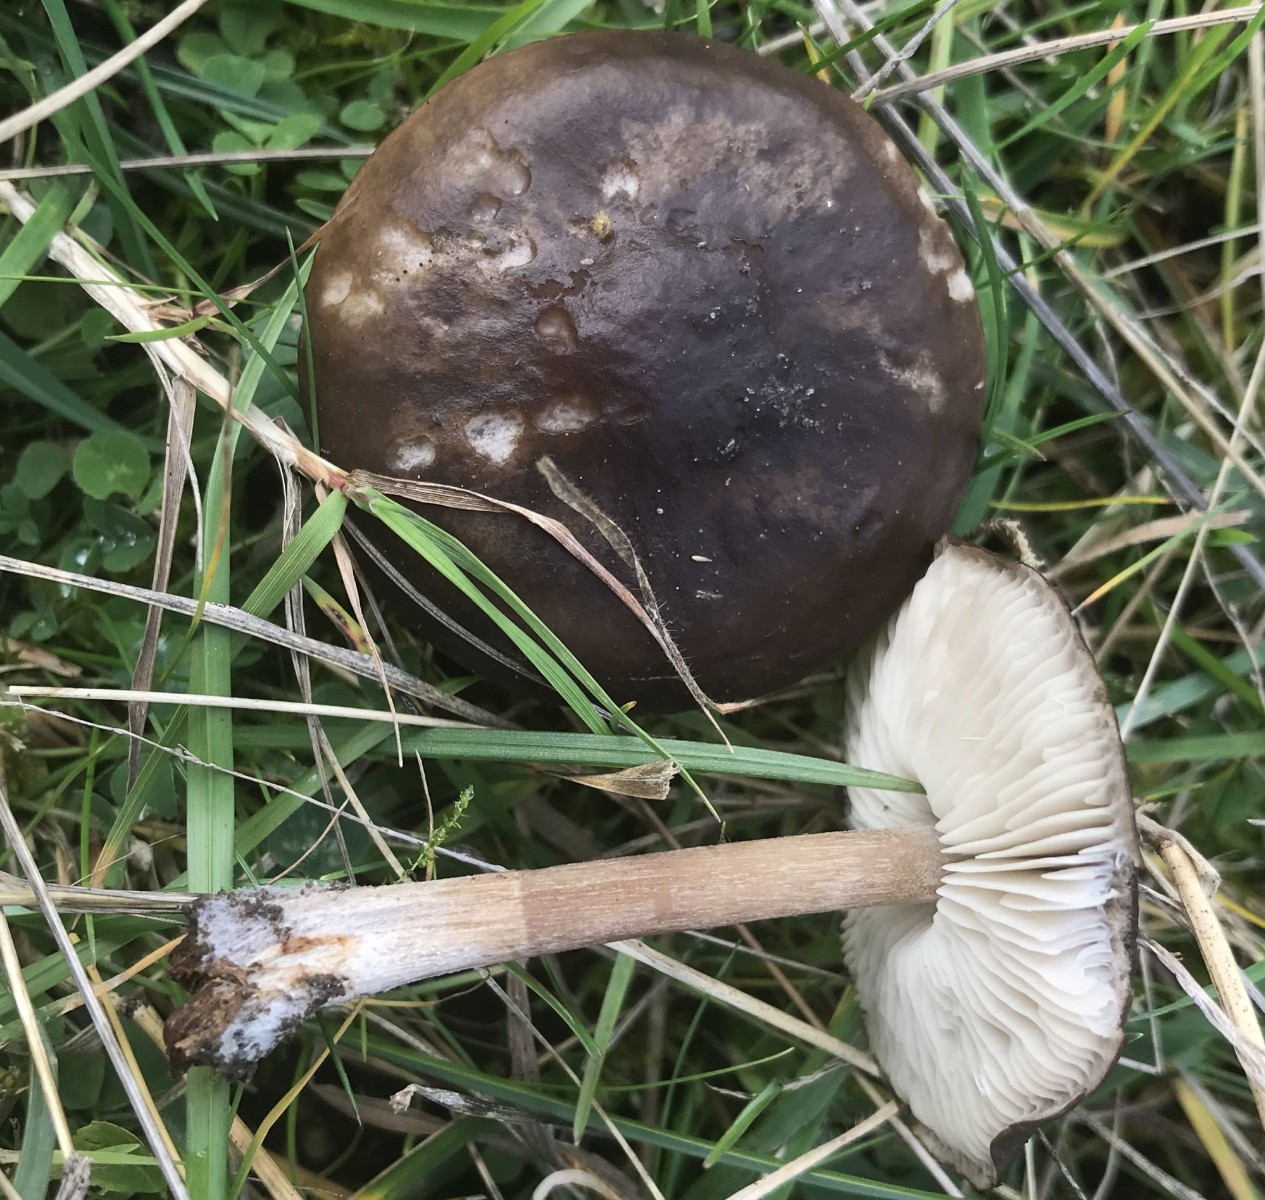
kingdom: Fungi
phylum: Basidiomycota
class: Agaricomycetes
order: Agaricales
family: Tricholomataceae
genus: Melanoleuca
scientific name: Melanoleuca
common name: munkehat
